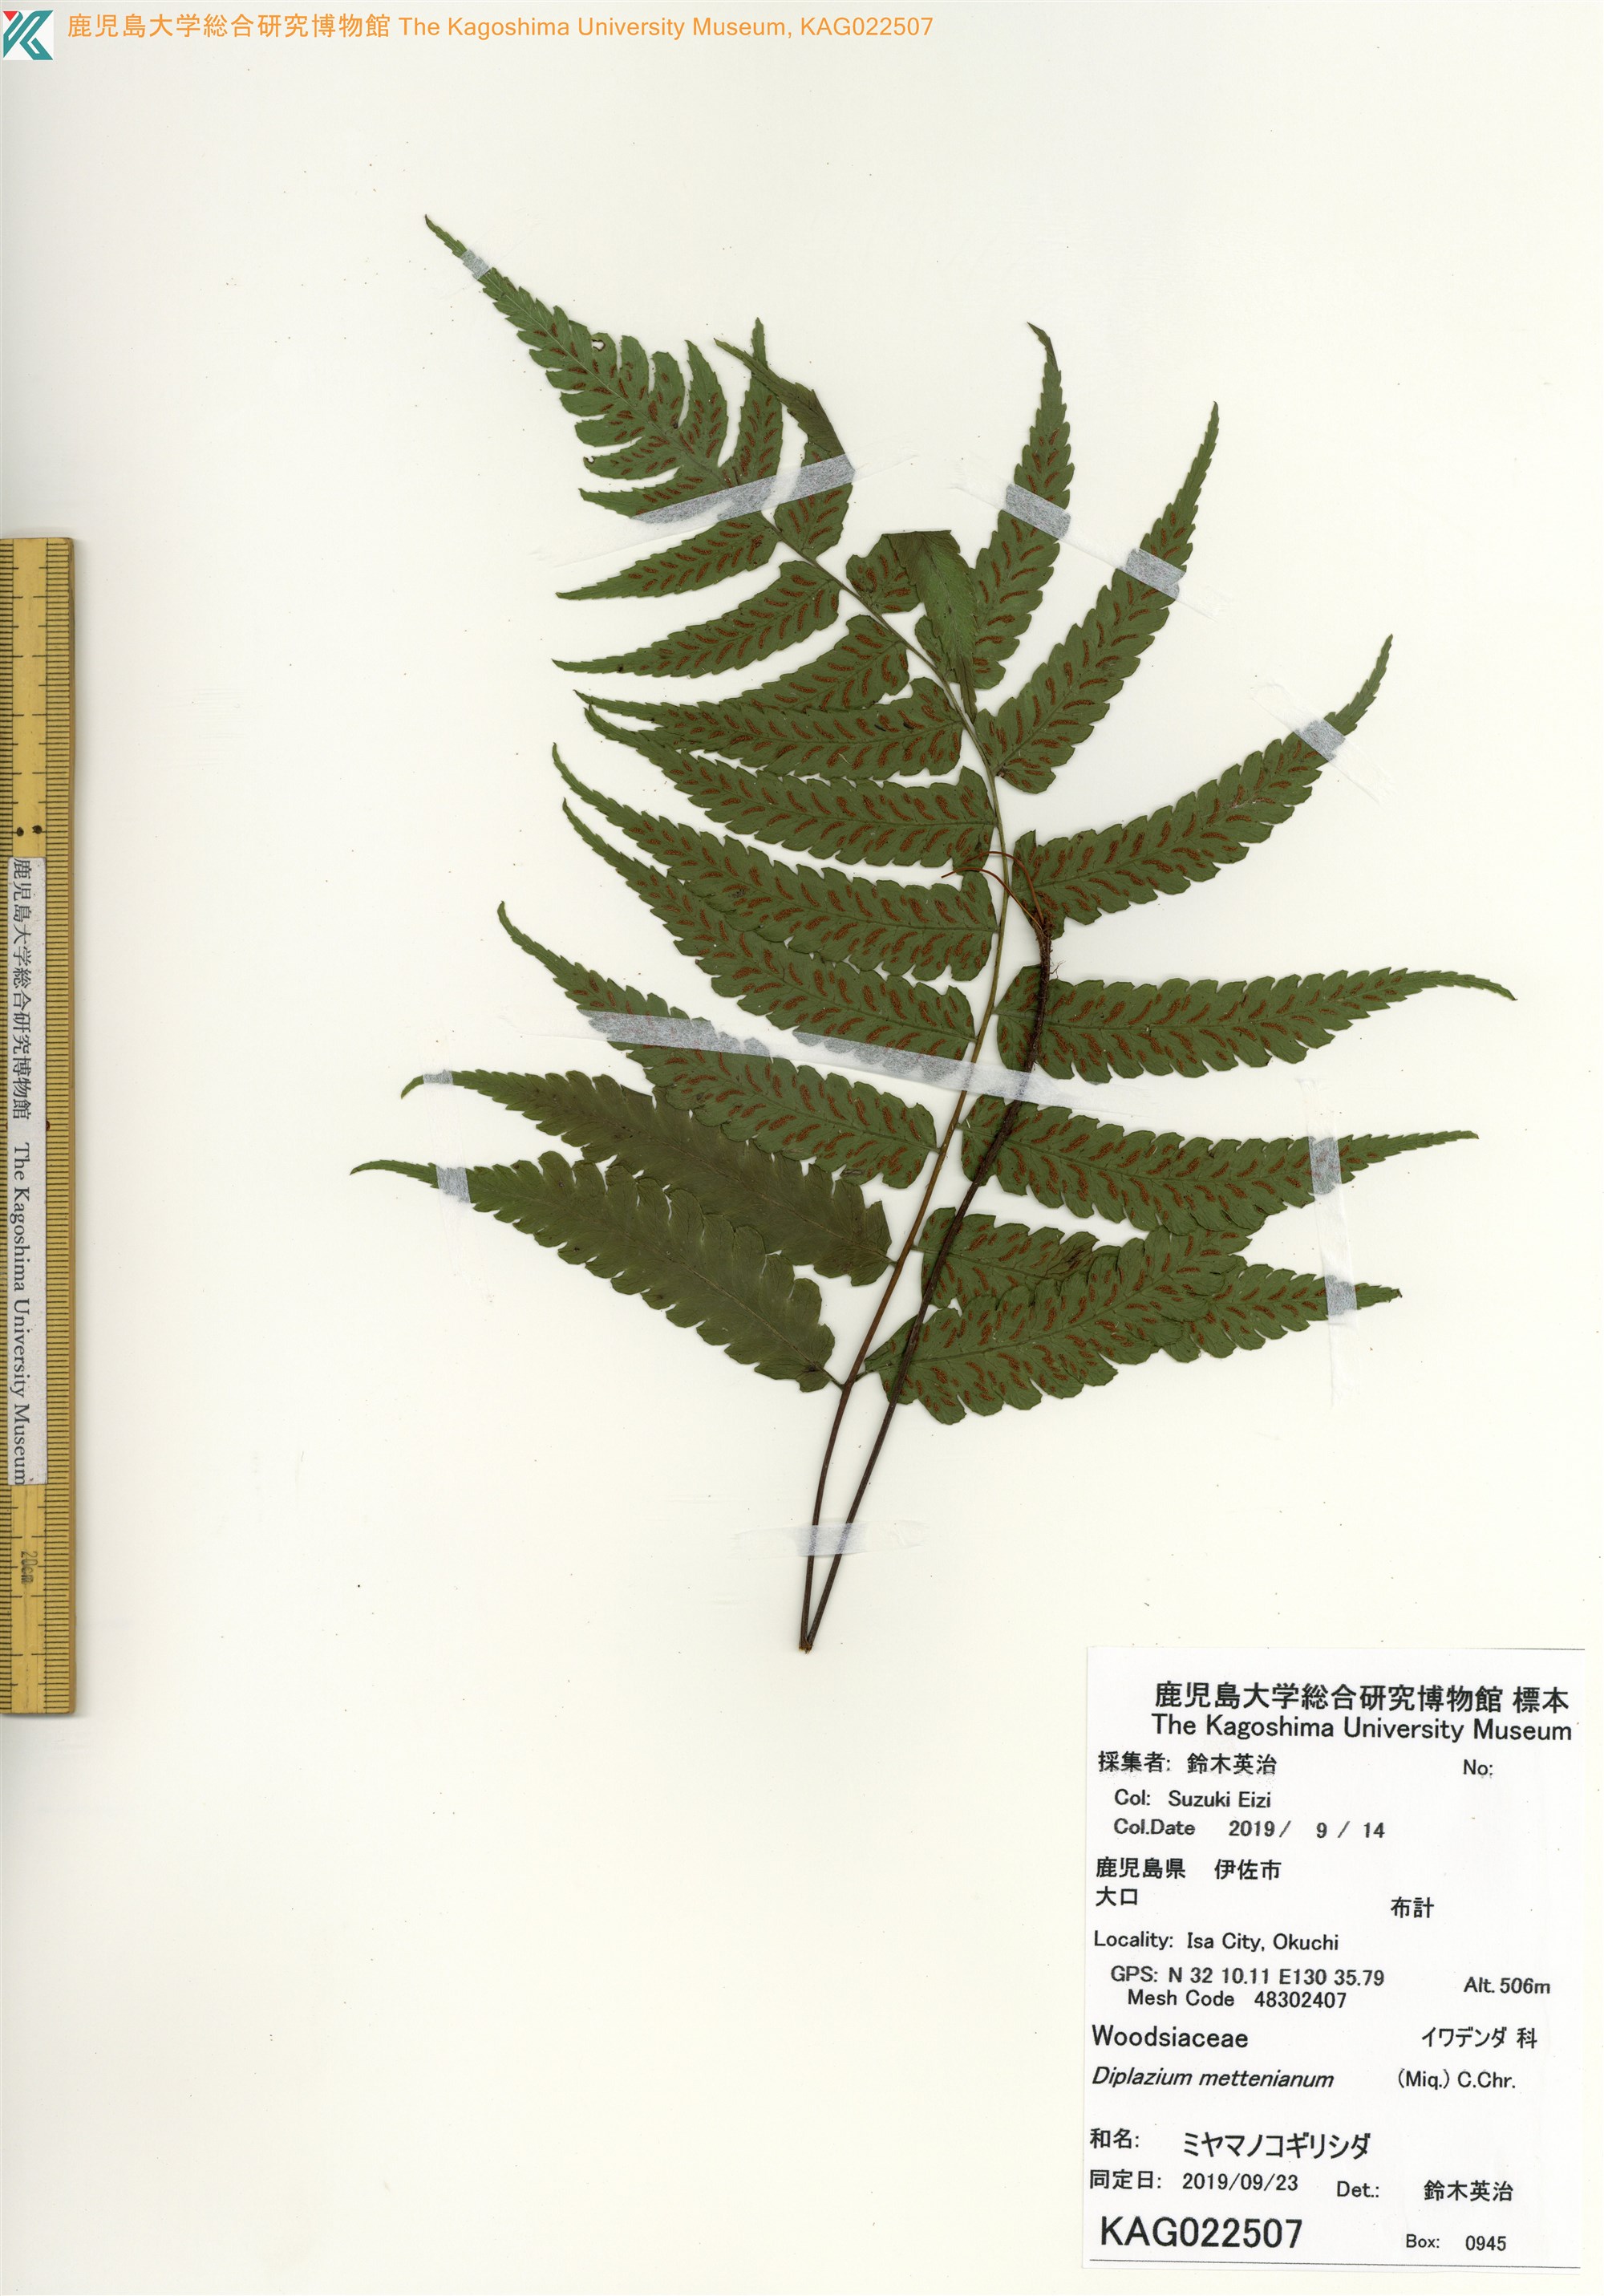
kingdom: Plantae
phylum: Tracheophyta
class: Polypodiopsida
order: Polypodiales
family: Athyriaceae
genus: Diplazium
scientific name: Diplazium mettenianum
